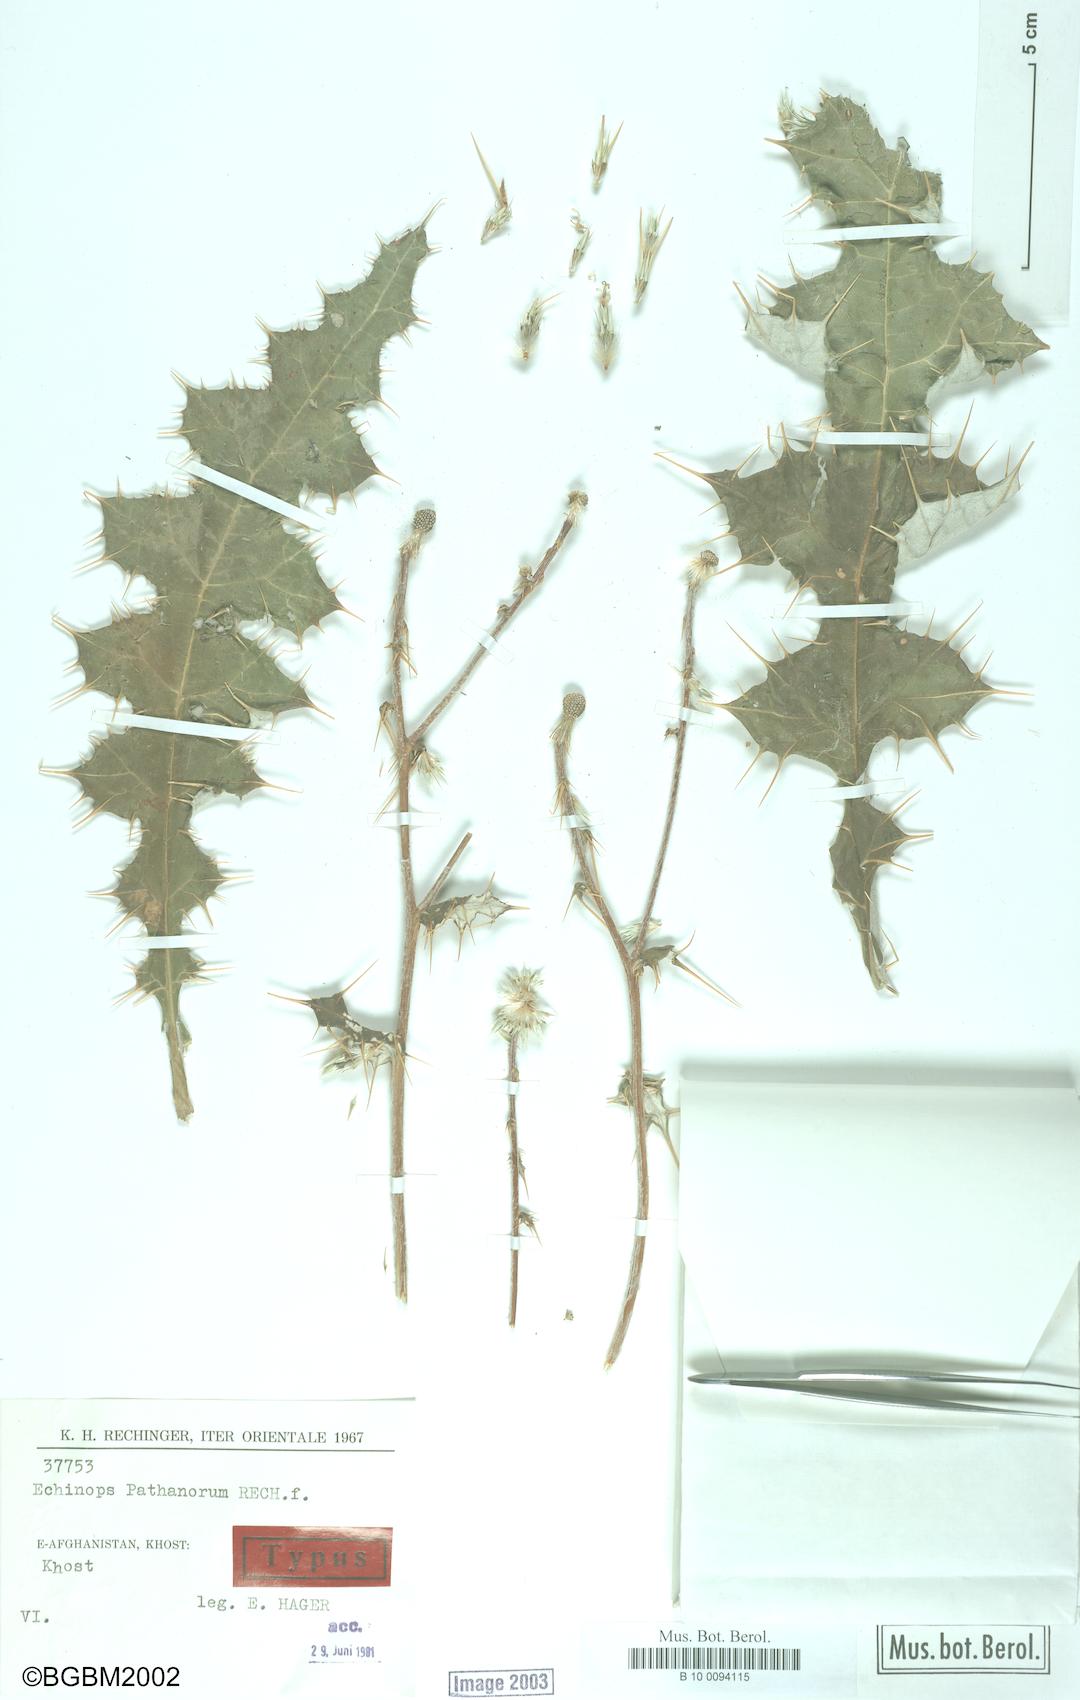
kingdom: Plantae
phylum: Tracheophyta
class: Magnoliopsida
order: Asterales
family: Asteraceae
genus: Echinops
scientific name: Echinops pathanorum
